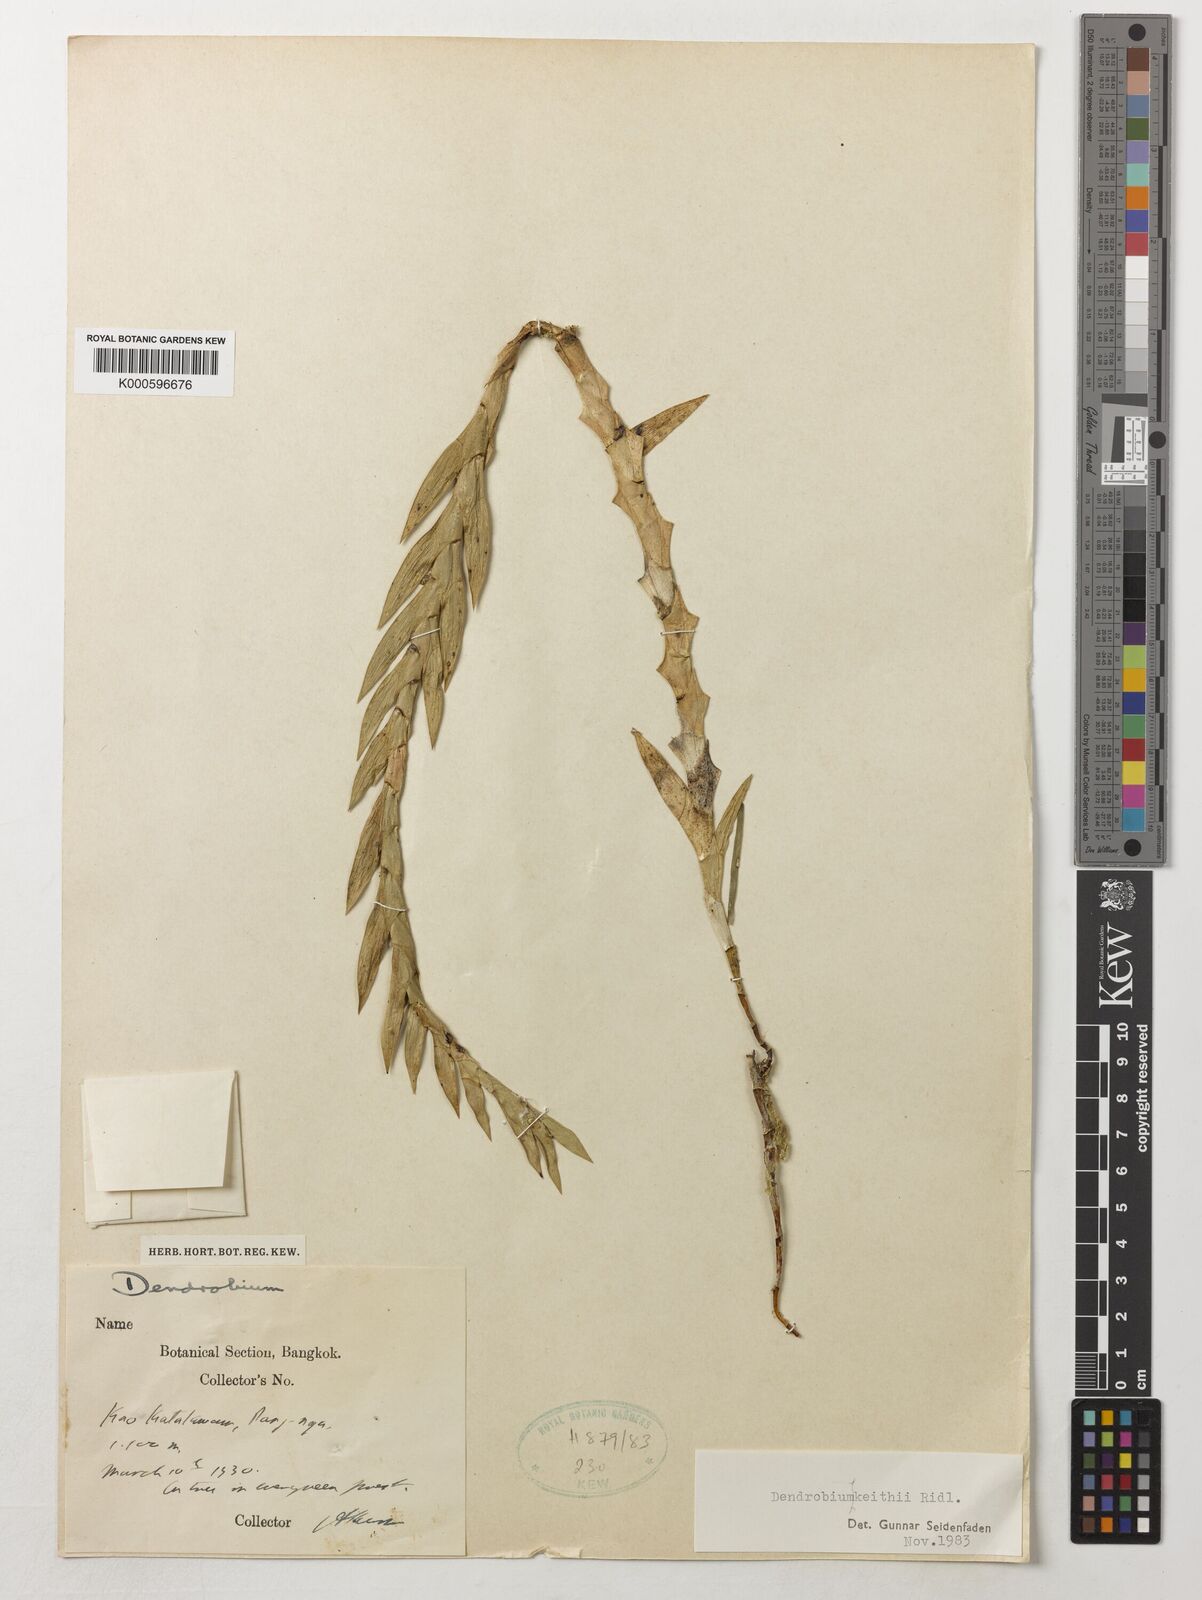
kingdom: Plantae
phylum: Tracheophyta
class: Liliopsida
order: Asparagales
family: Orchidaceae
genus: Dendrobium
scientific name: Dendrobium keithii
